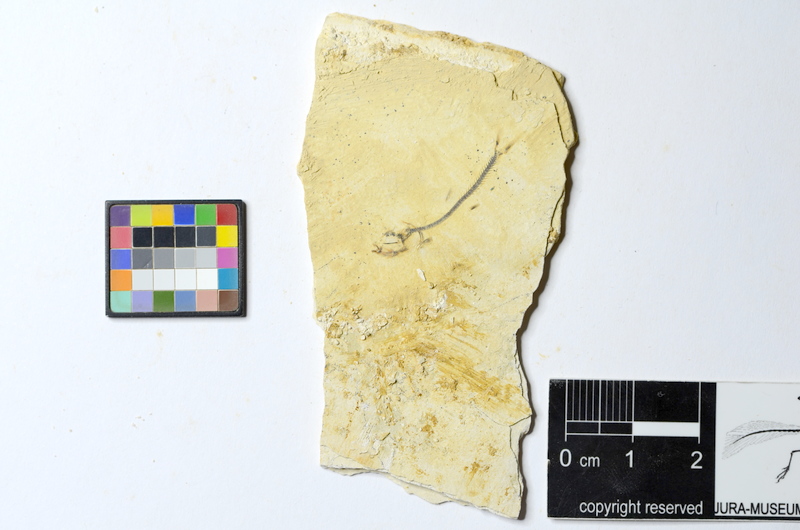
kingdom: Animalia
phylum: Chordata
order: Salmoniformes
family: Orthogonikleithridae
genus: Orthogonikleithrus
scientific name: Orthogonikleithrus hoelli
